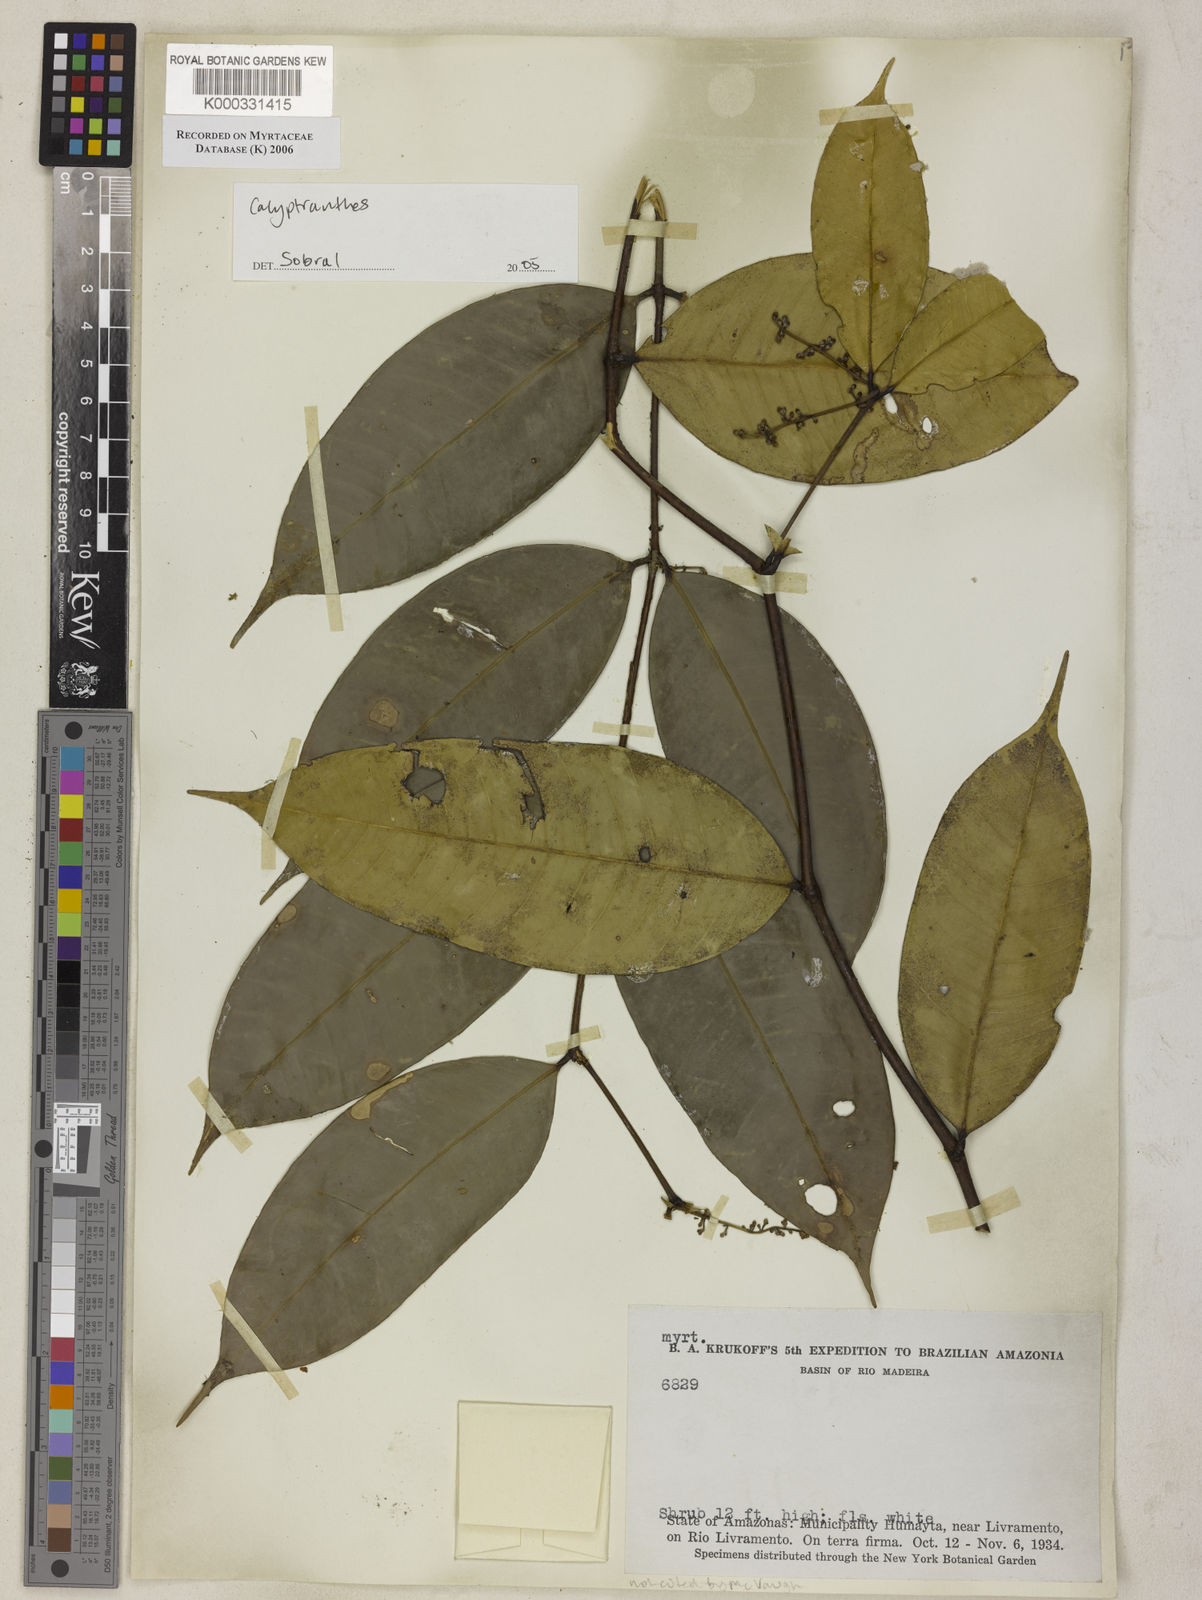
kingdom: Plantae
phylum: Tracheophyta
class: Magnoliopsida
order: Myrtales
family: Myrtaceae
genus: Calyptranthes
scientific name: Calyptranthes
